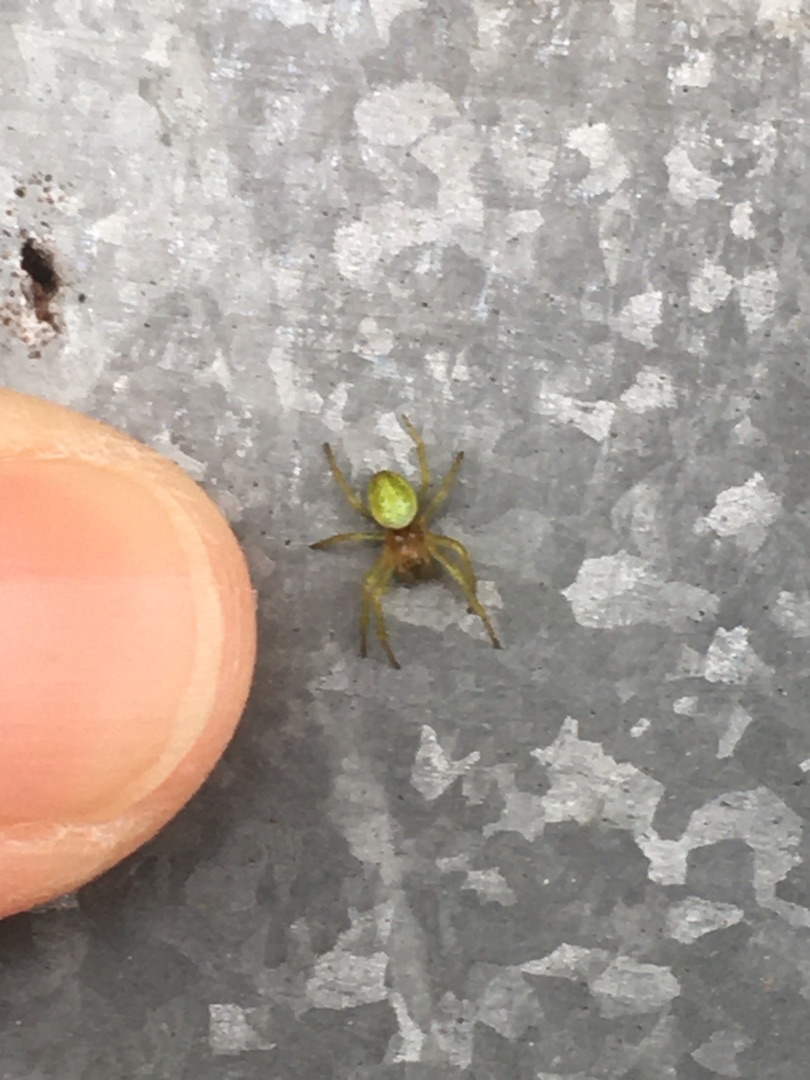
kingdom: Animalia
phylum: Arthropoda
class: Arachnida
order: Araneae
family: Araneidae
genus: Araniella
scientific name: Araniella
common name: Agurkeedderkopslægten
